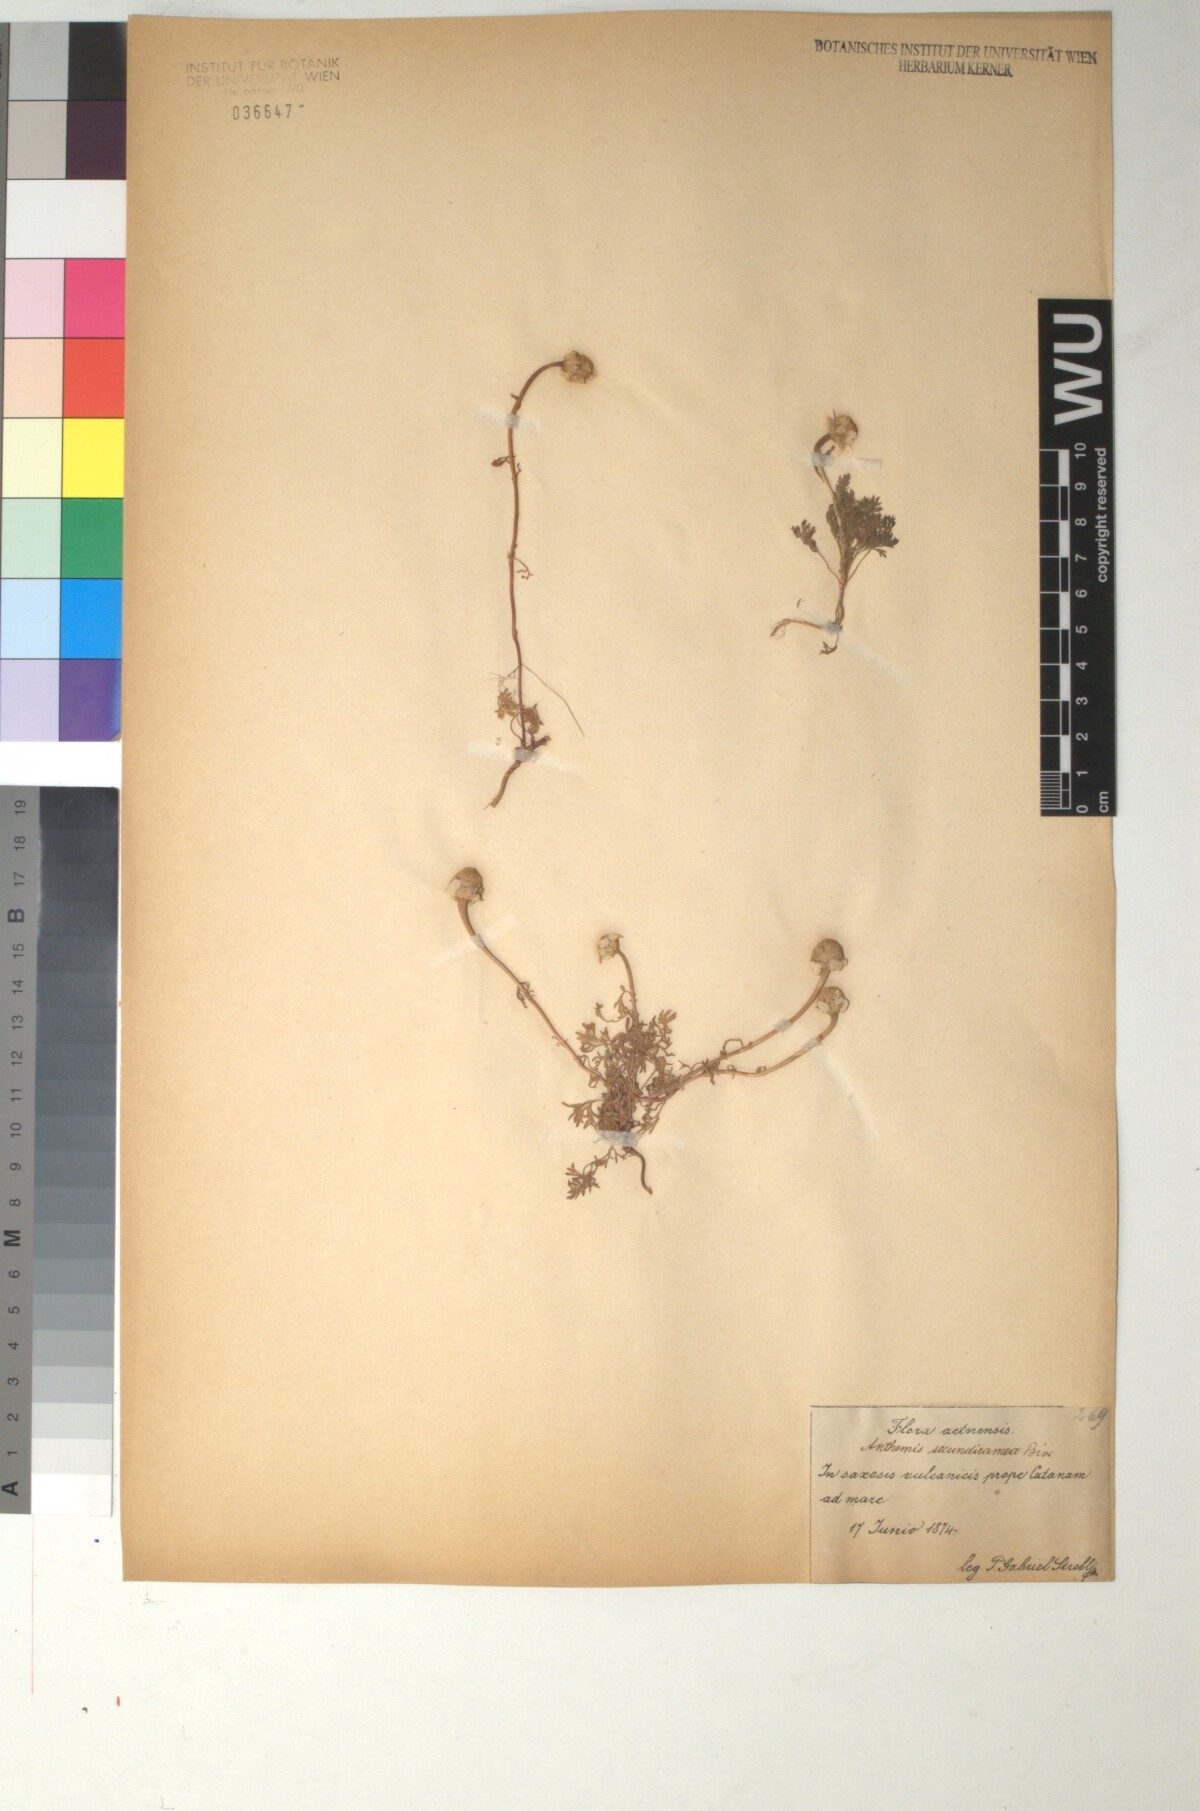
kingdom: Plantae
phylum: Tracheophyta
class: Magnoliopsida
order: Asterales
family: Asteraceae
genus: Anthemis
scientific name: Anthemis secundiramea
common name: Prostrate chamomile
